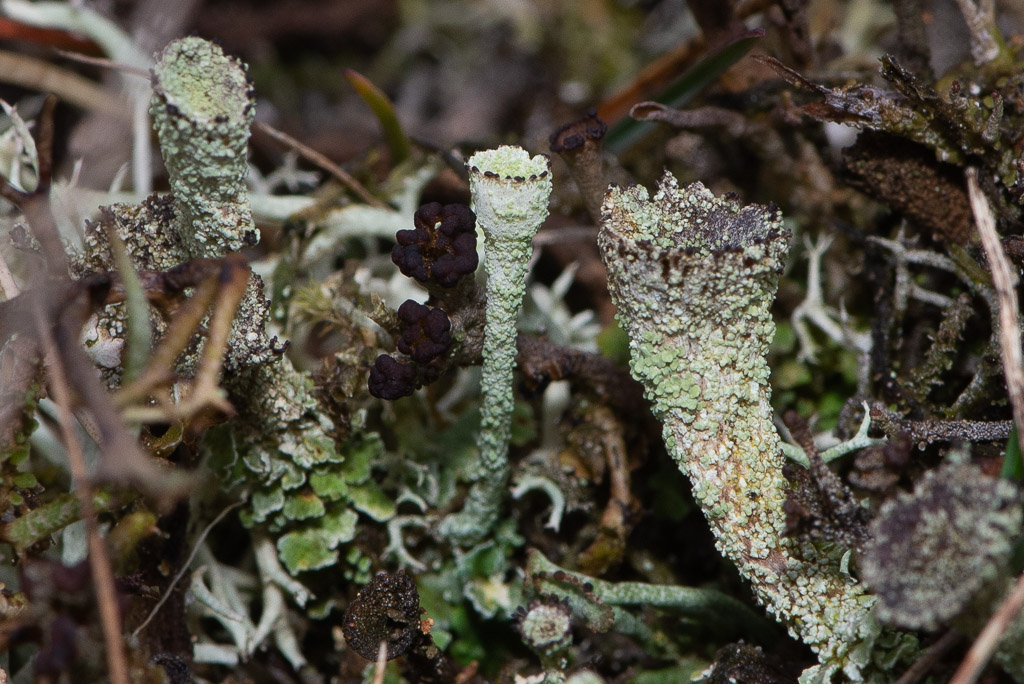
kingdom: Fungi
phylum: Ascomycota
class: Lecanoromycetes
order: Lecanorales
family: Cladoniaceae
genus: Cladonia
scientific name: Cladonia
